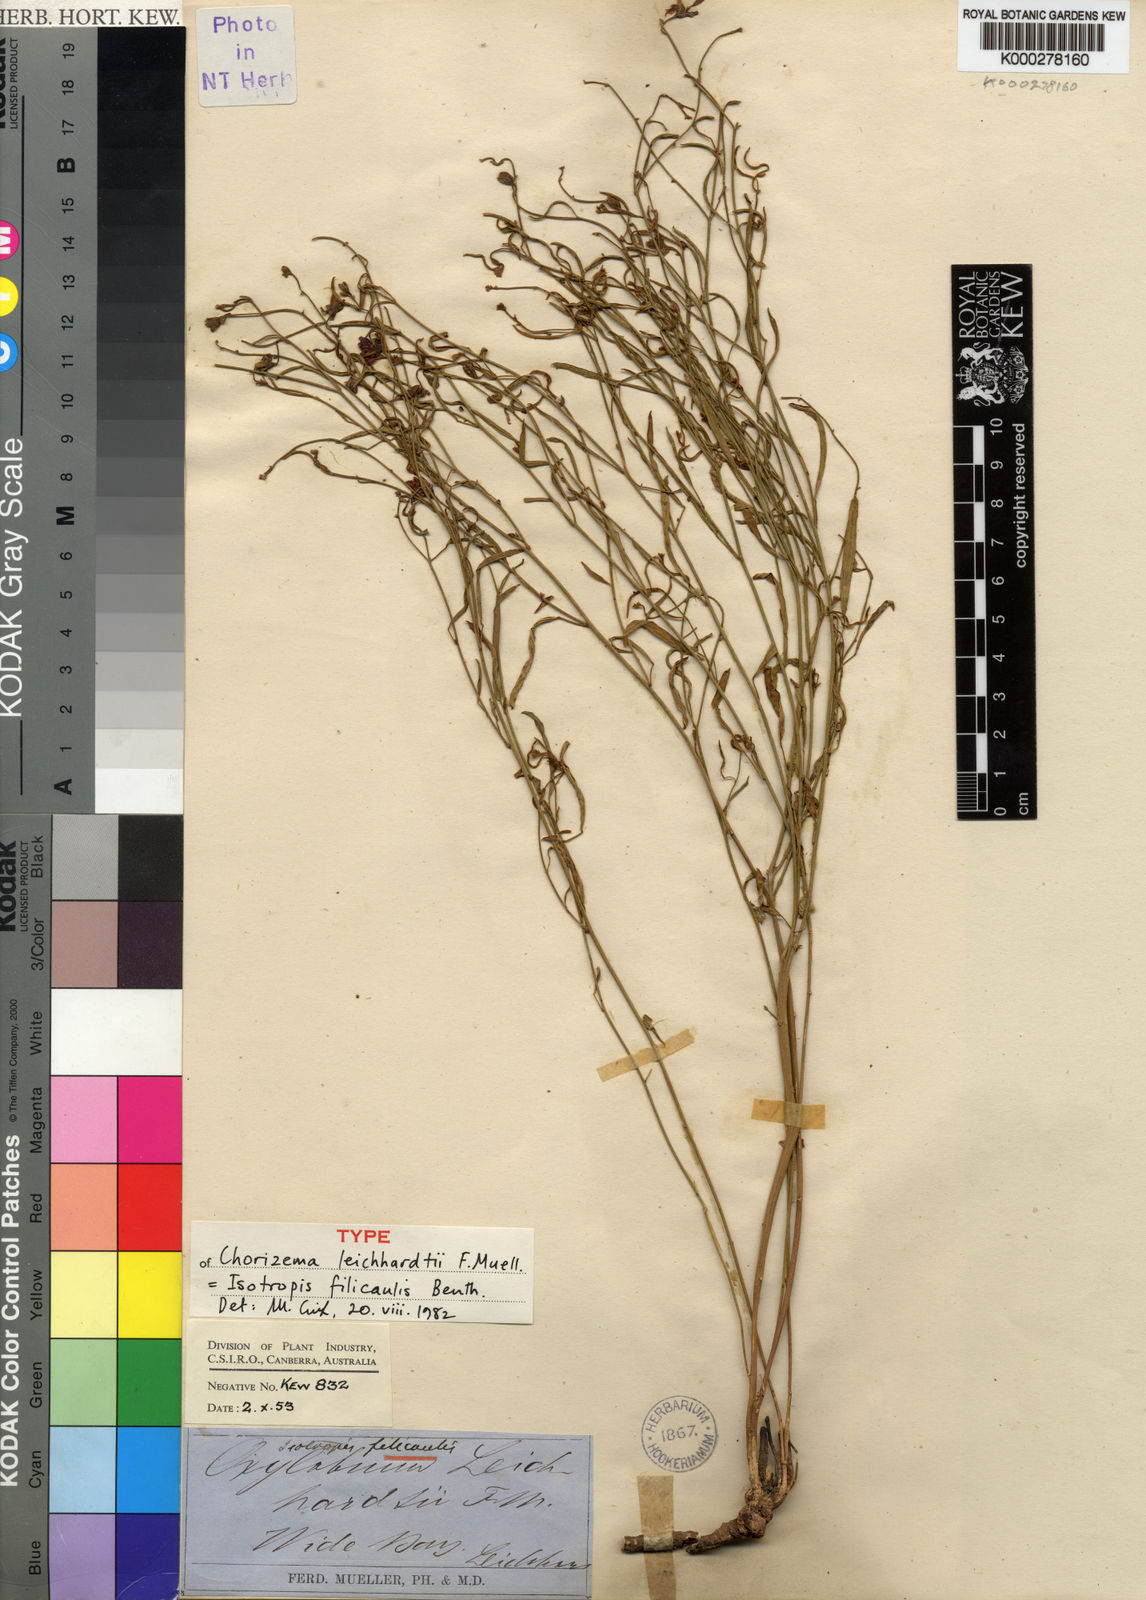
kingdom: Plantae
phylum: Tracheophyta
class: Magnoliopsida
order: Fabales
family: Fabaceae
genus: Isotropis
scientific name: Isotropis filicaulis
